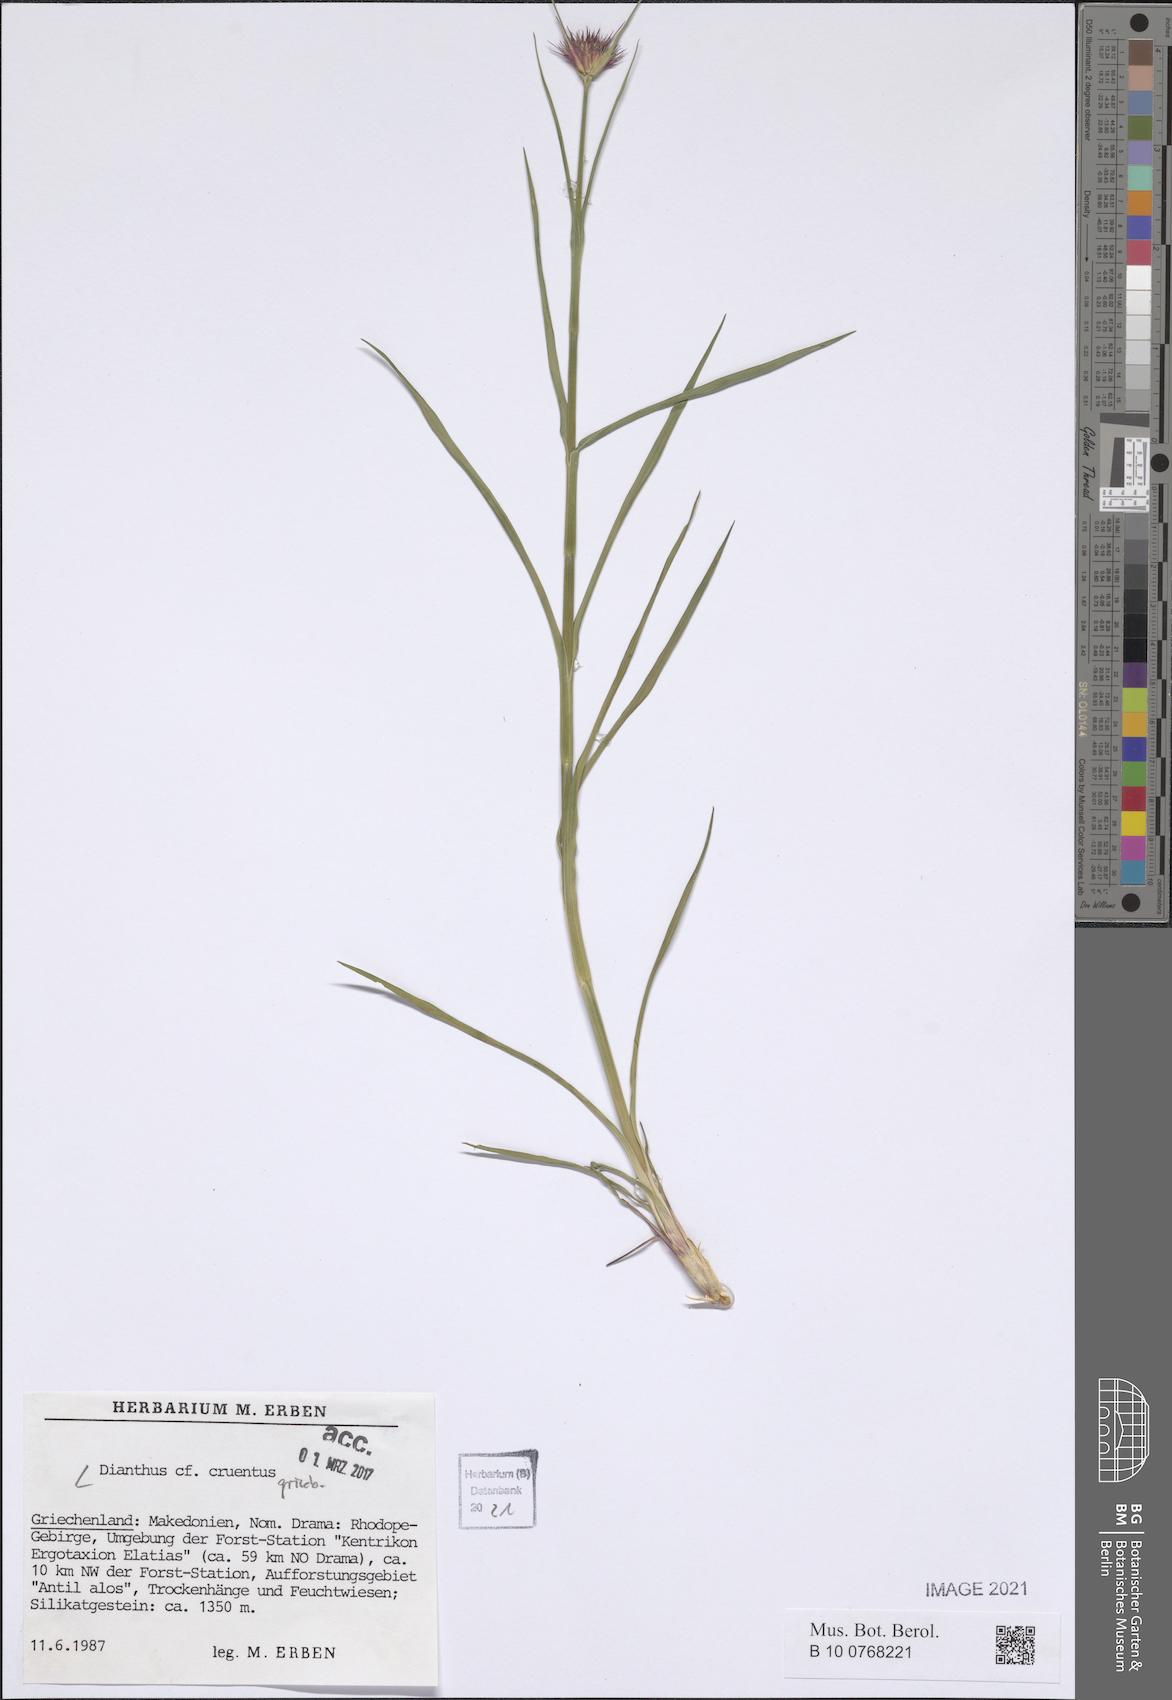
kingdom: Plantae
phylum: Tracheophyta
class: Magnoliopsida
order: Caryophyllales
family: Caryophyllaceae
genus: Dianthus
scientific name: Dianthus cruentus
